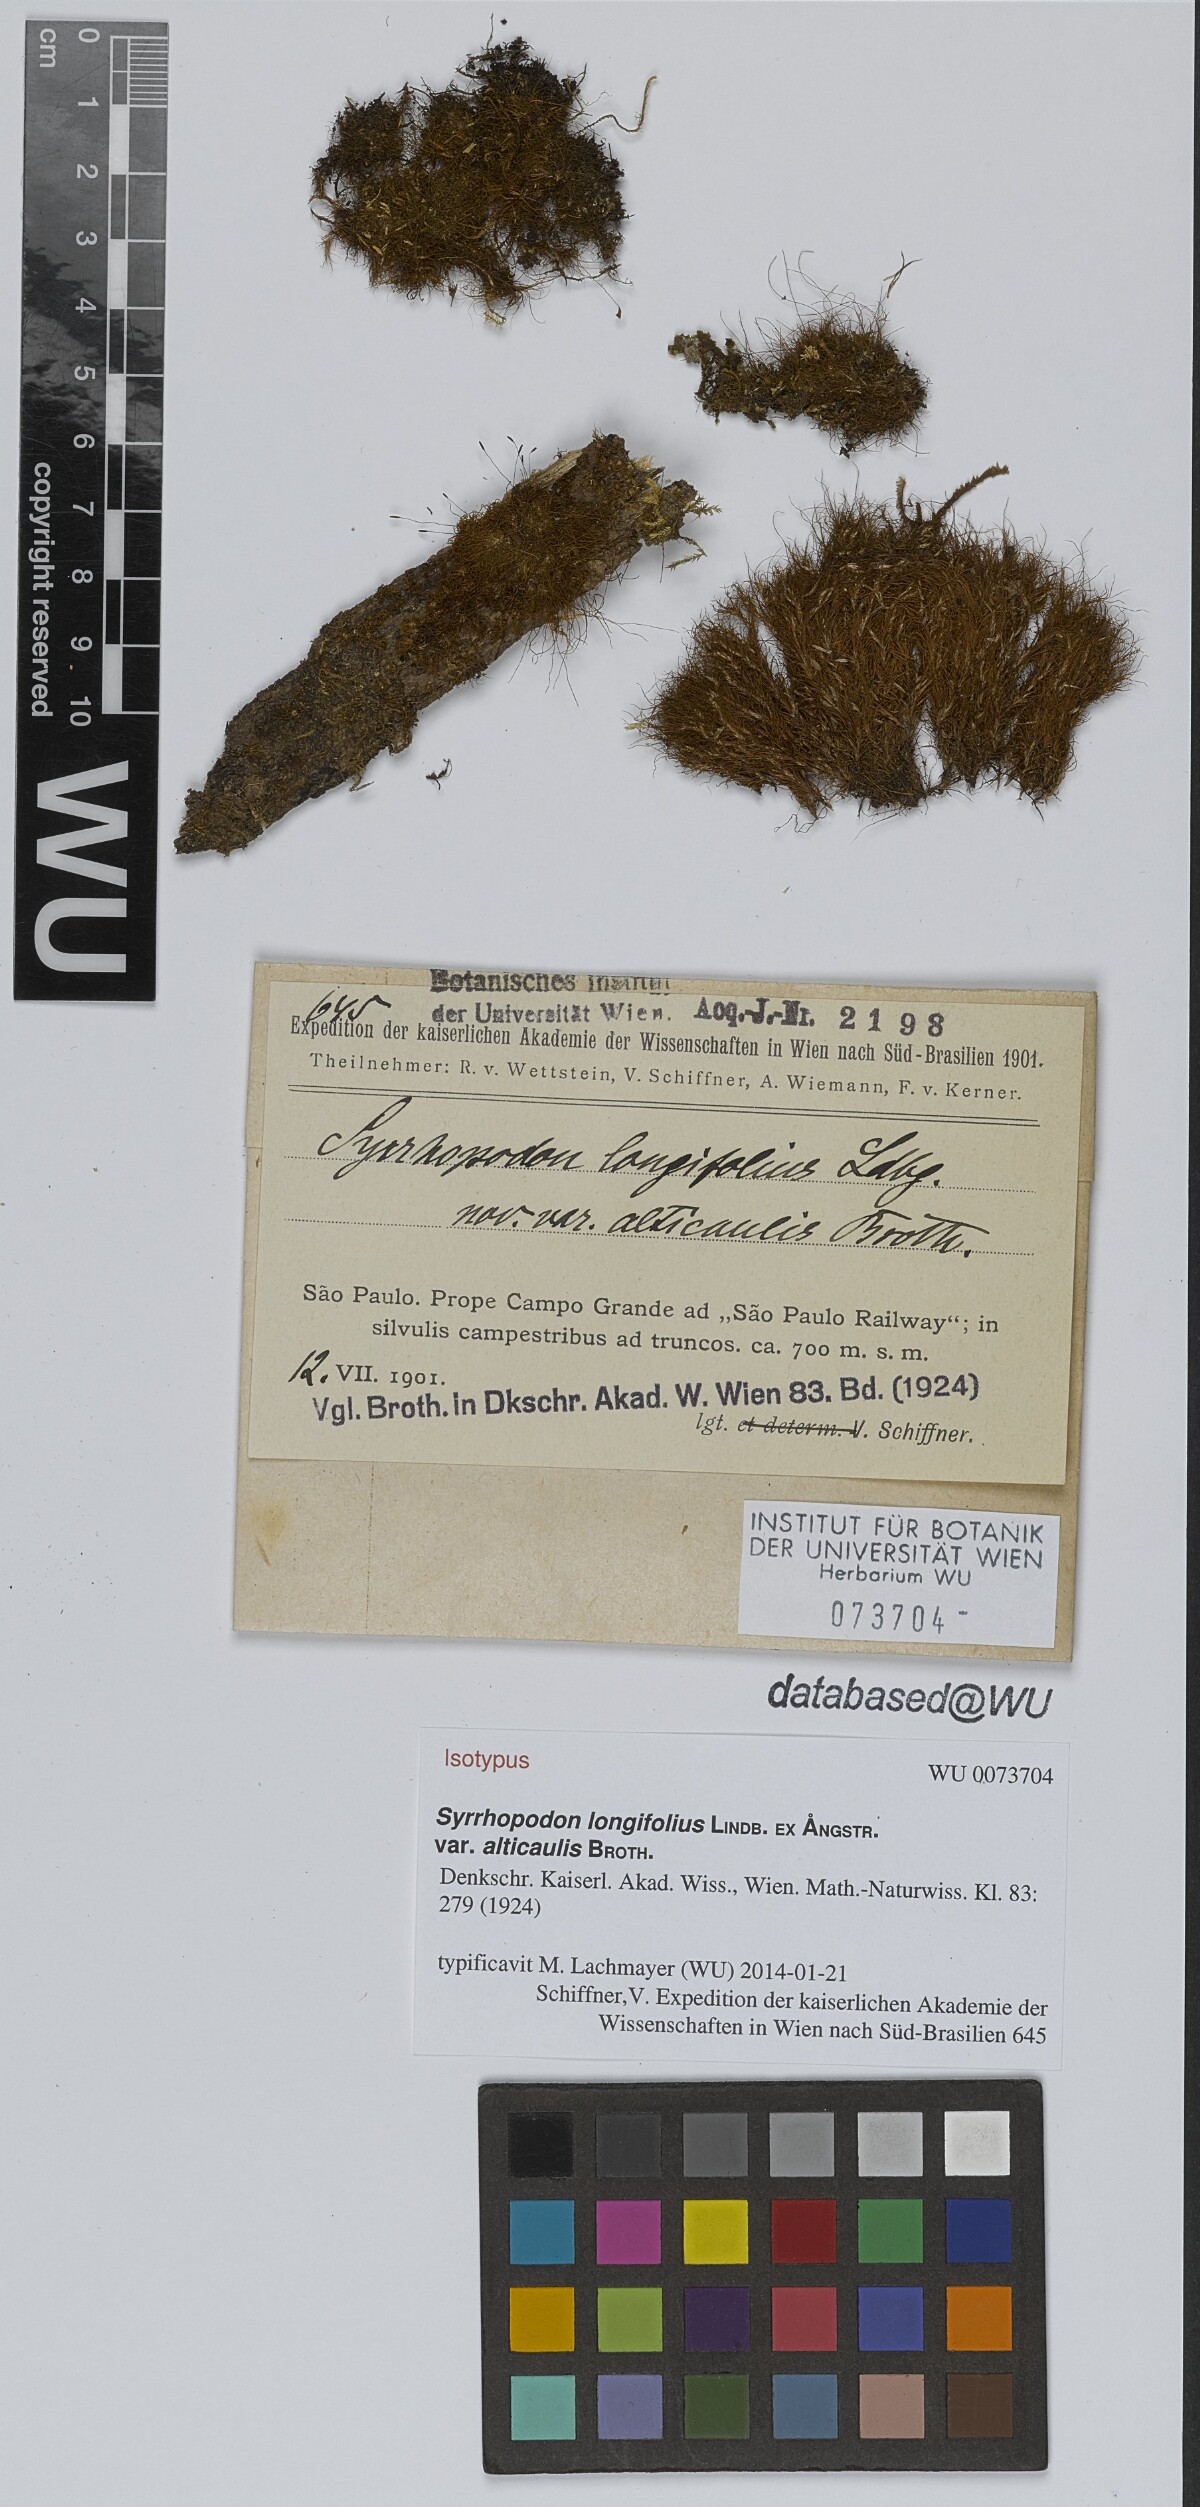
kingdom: Plantae
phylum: Bryophyta
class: Bryopsida
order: Dicranales
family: Calymperaceae
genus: Syrrhopodon
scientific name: Syrrhopodon prolifer
